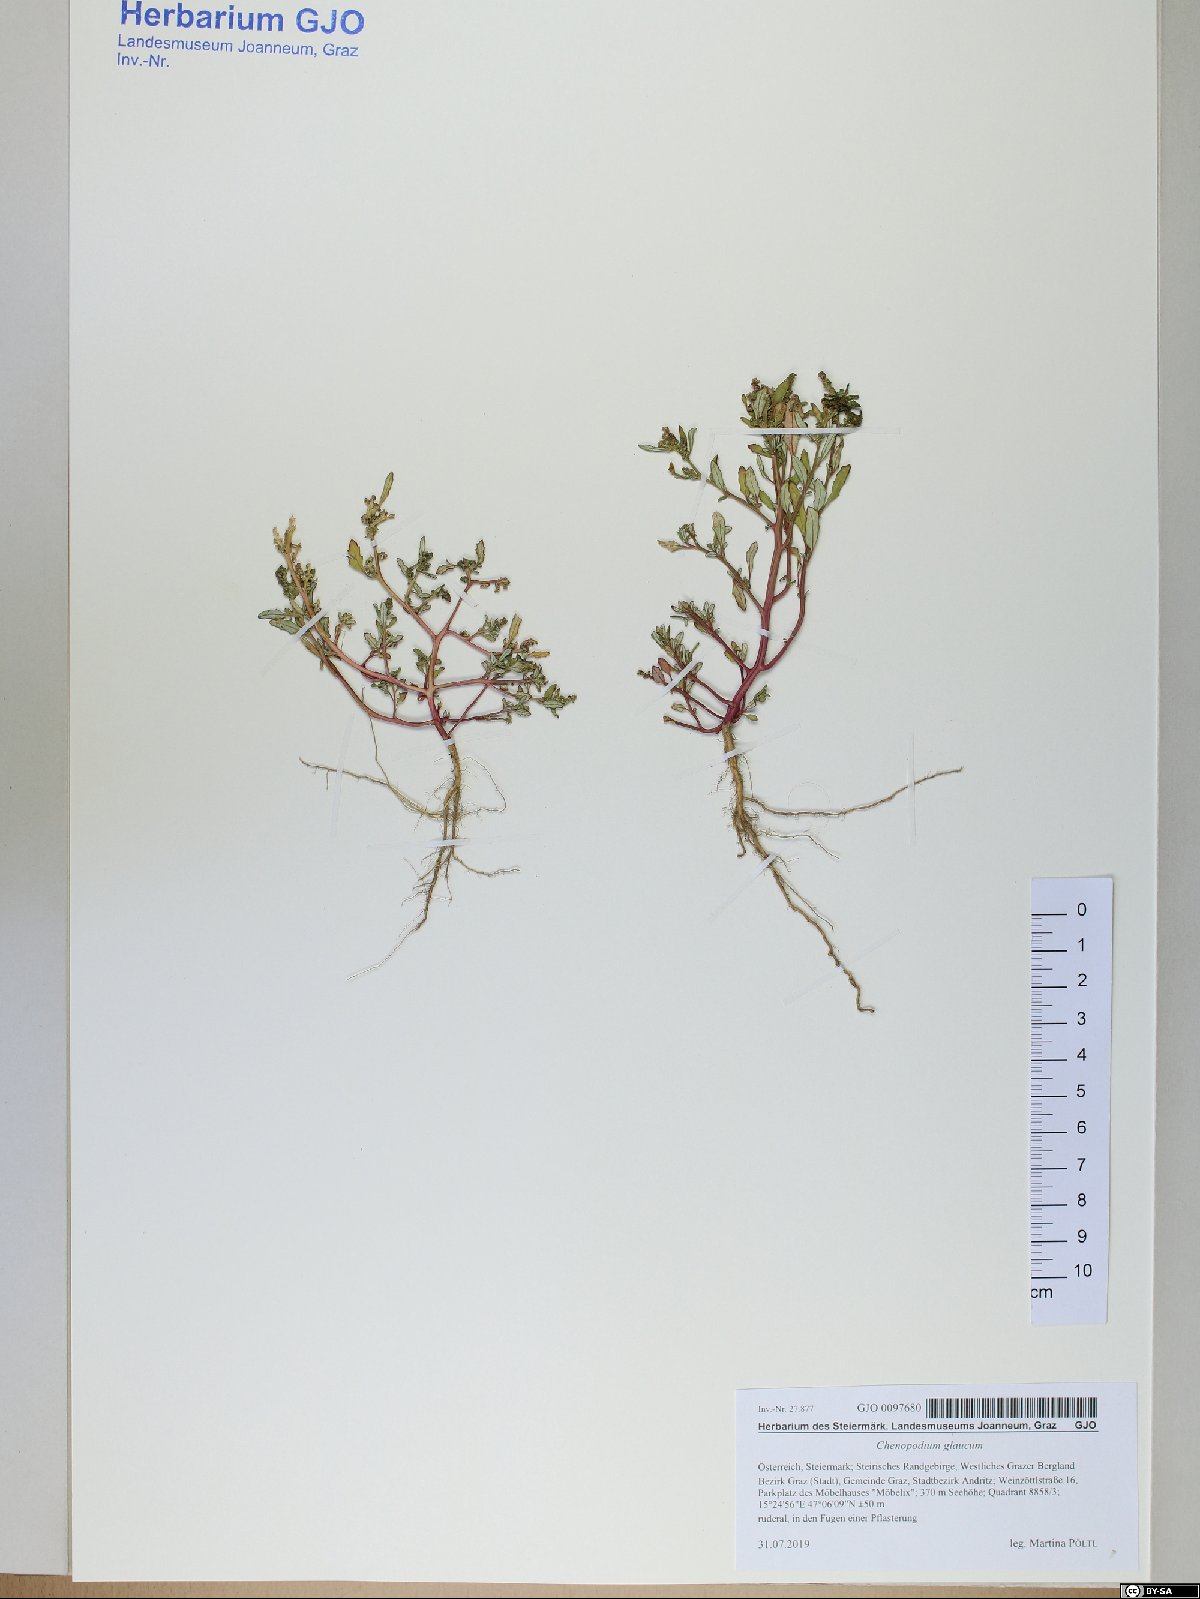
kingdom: Plantae
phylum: Tracheophyta
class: Magnoliopsida
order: Caryophyllales
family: Amaranthaceae
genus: Oxybasis
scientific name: Oxybasis glauca
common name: Glaucous goosefoot
